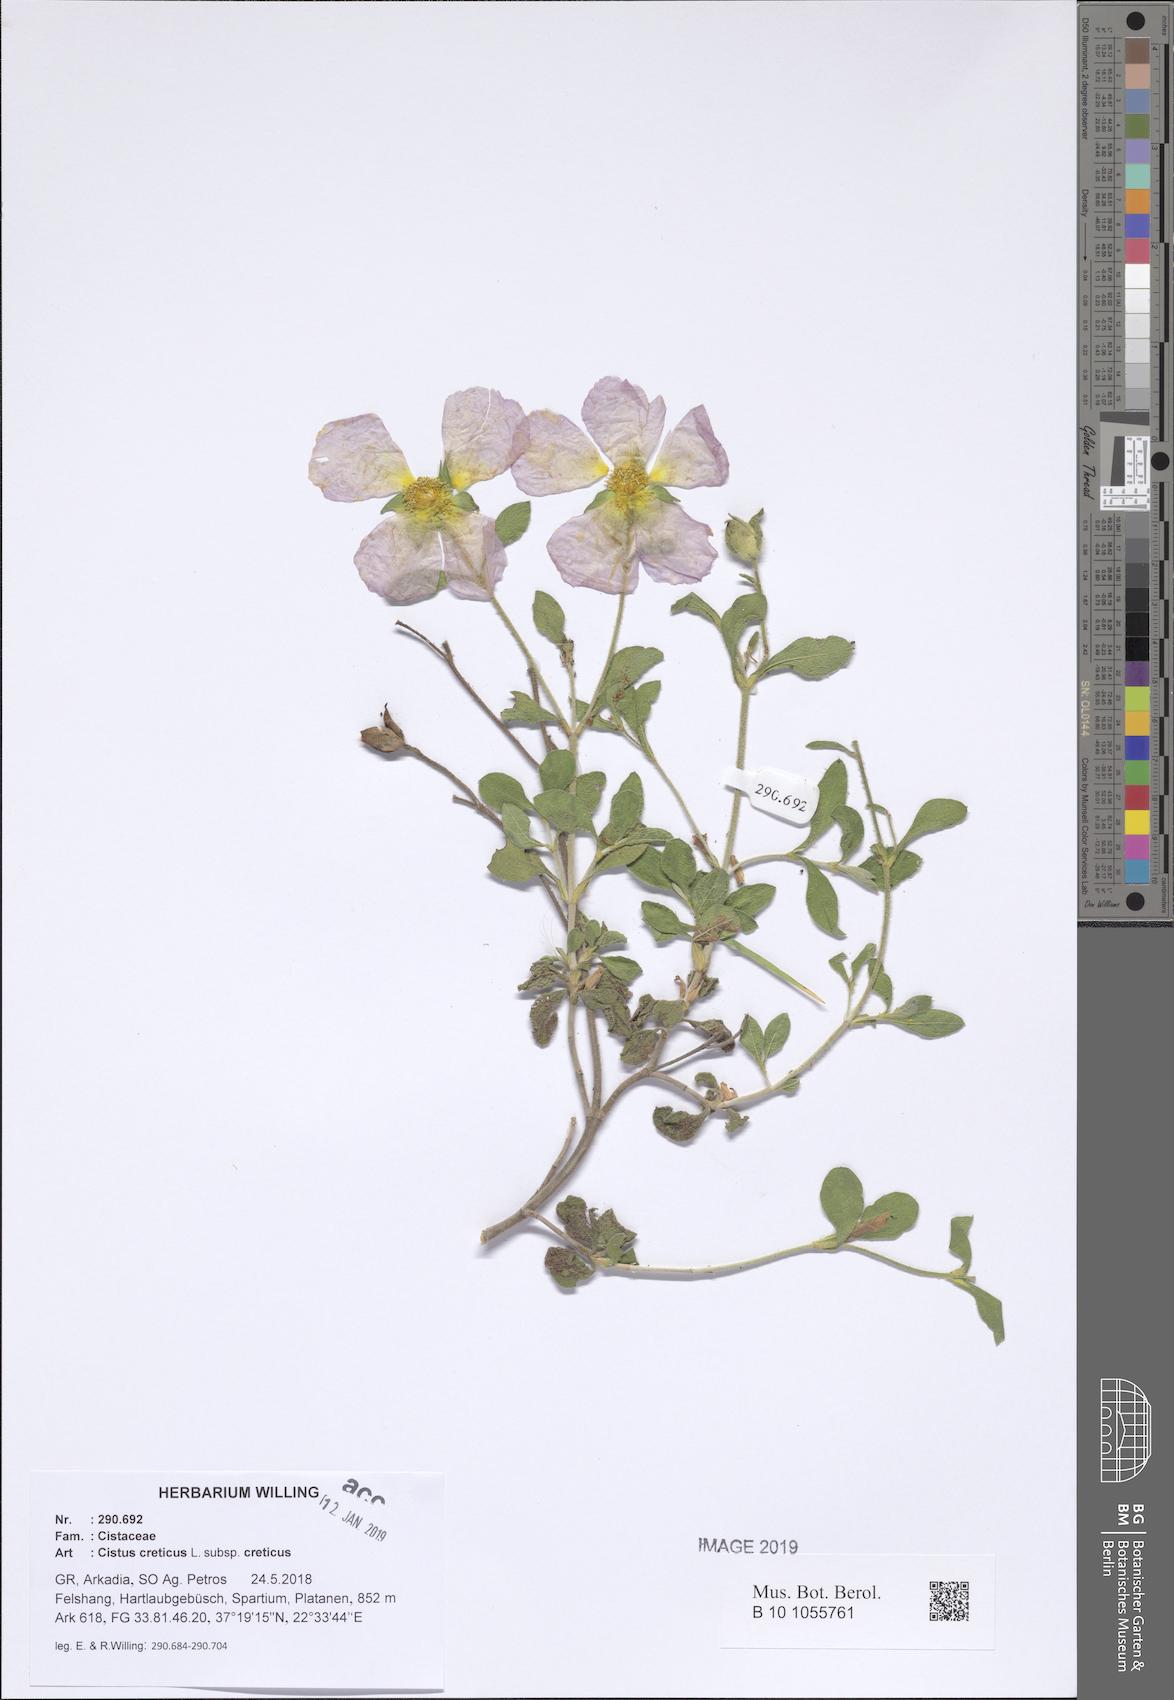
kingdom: Plantae
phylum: Tracheophyta
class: Magnoliopsida
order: Malvales
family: Cistaceae
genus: Cistus
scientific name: Cistus creticus
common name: Cretan rockrose
